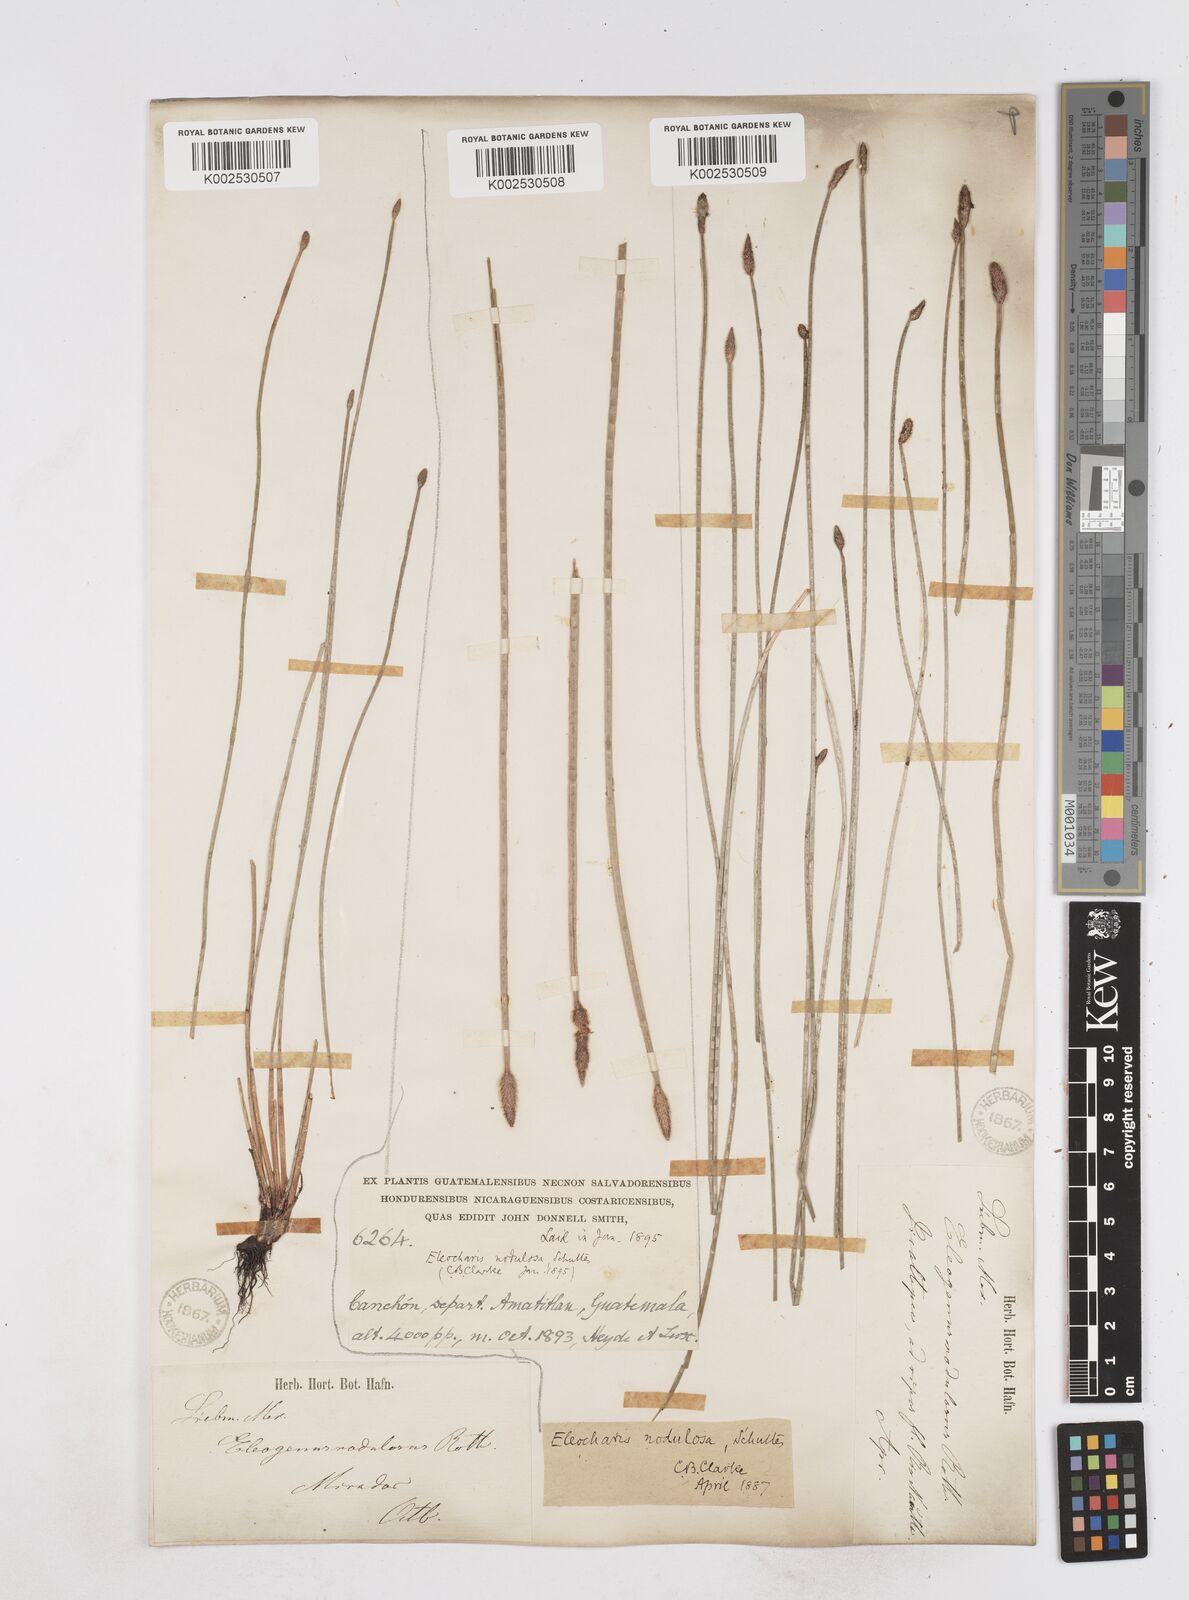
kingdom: Plantae
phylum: Tracheophyta
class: Liliopsida
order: Poales
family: Cyperaceae
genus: Eleocharis
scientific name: Eleocharis montana
